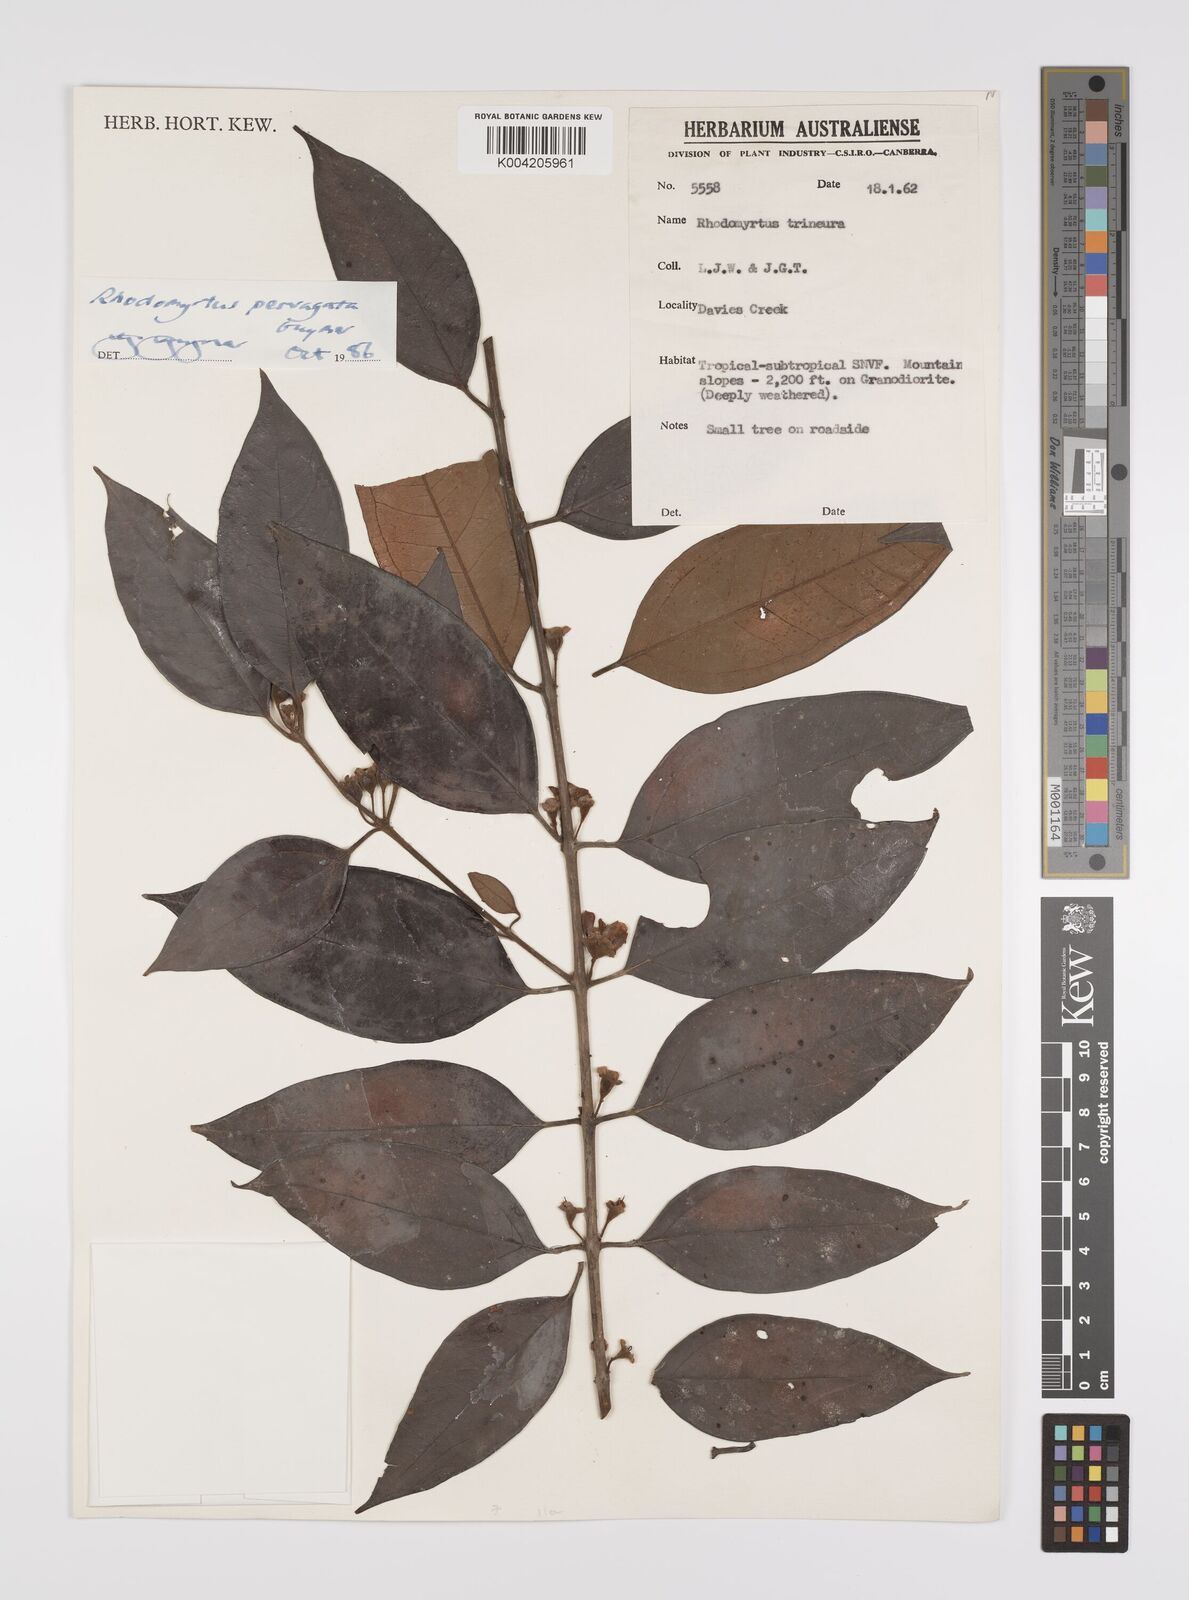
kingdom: Plantae
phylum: Tracheophyta
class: Magnoliopsida
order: Myrtales
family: Myrtaceae
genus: Rhodomyrtus
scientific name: Rhodomyrtus pervagata
